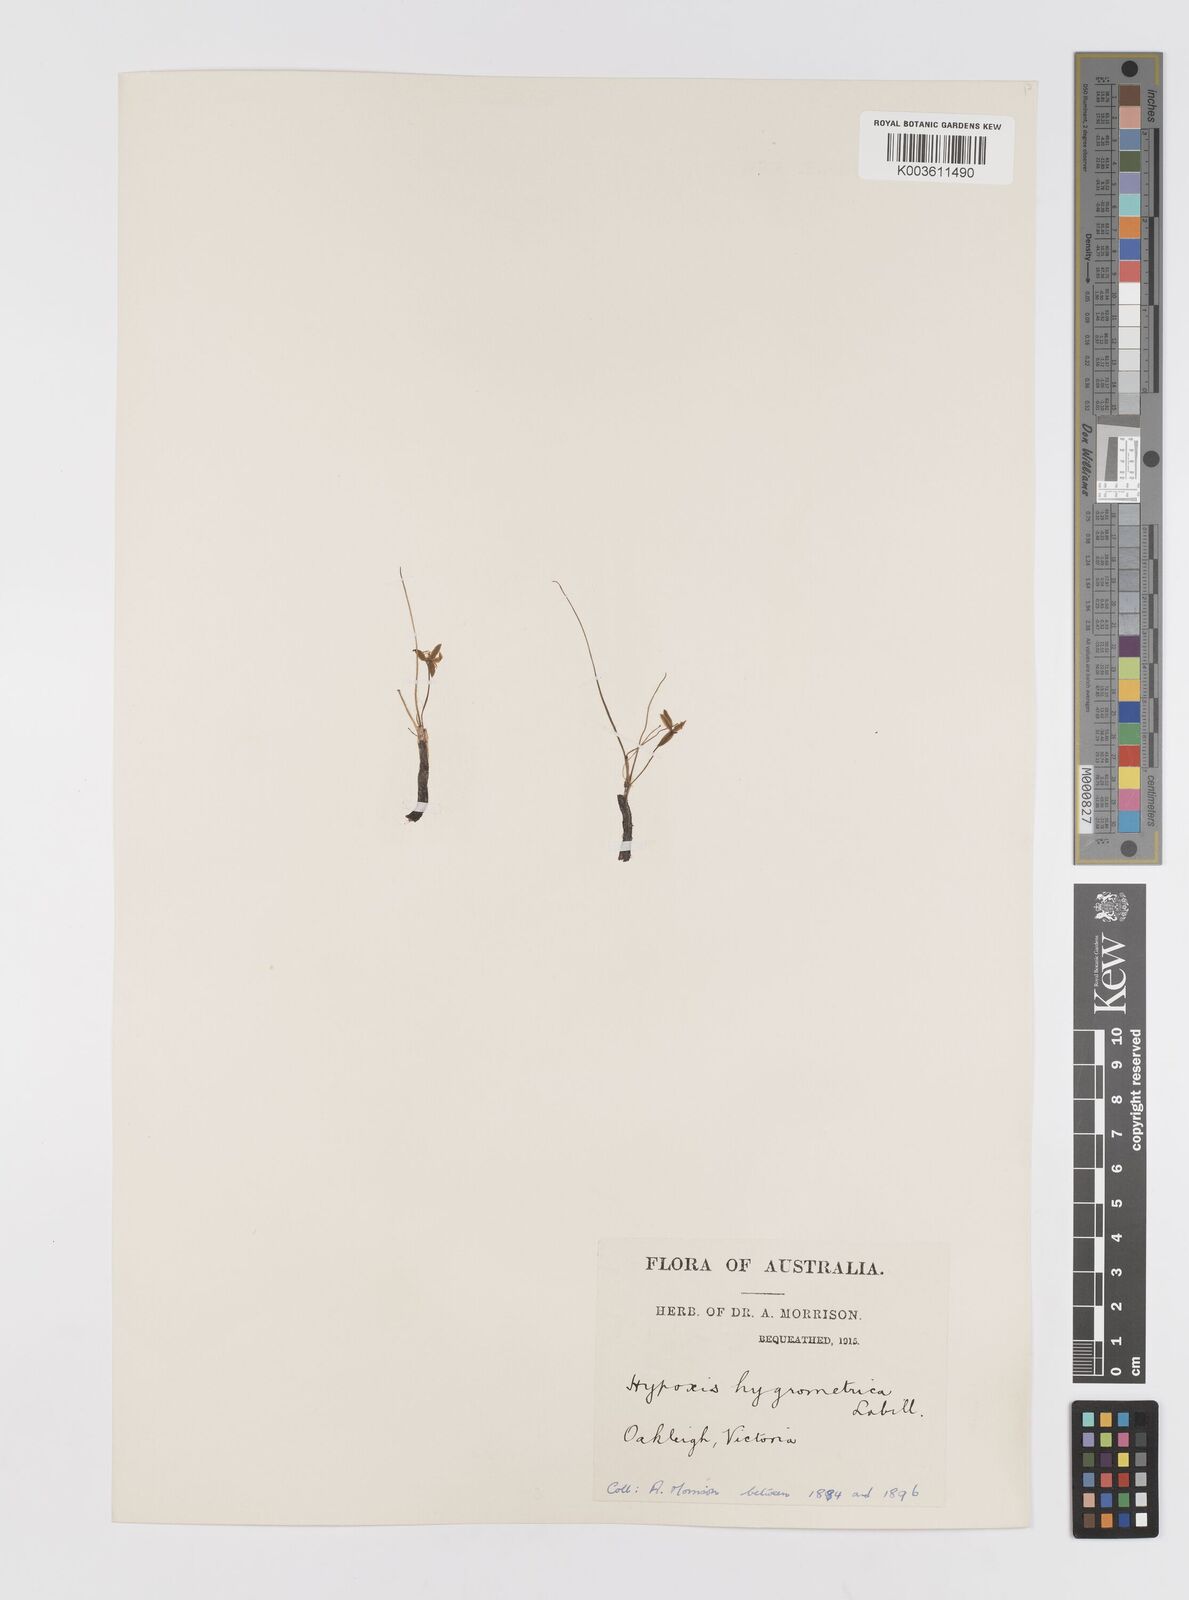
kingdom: Plantae
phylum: Tracheophyta
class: Liliopsida
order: Asparagales
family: Hypoxidaceae
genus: Hypoxis
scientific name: Hypoxis hygrometrica
